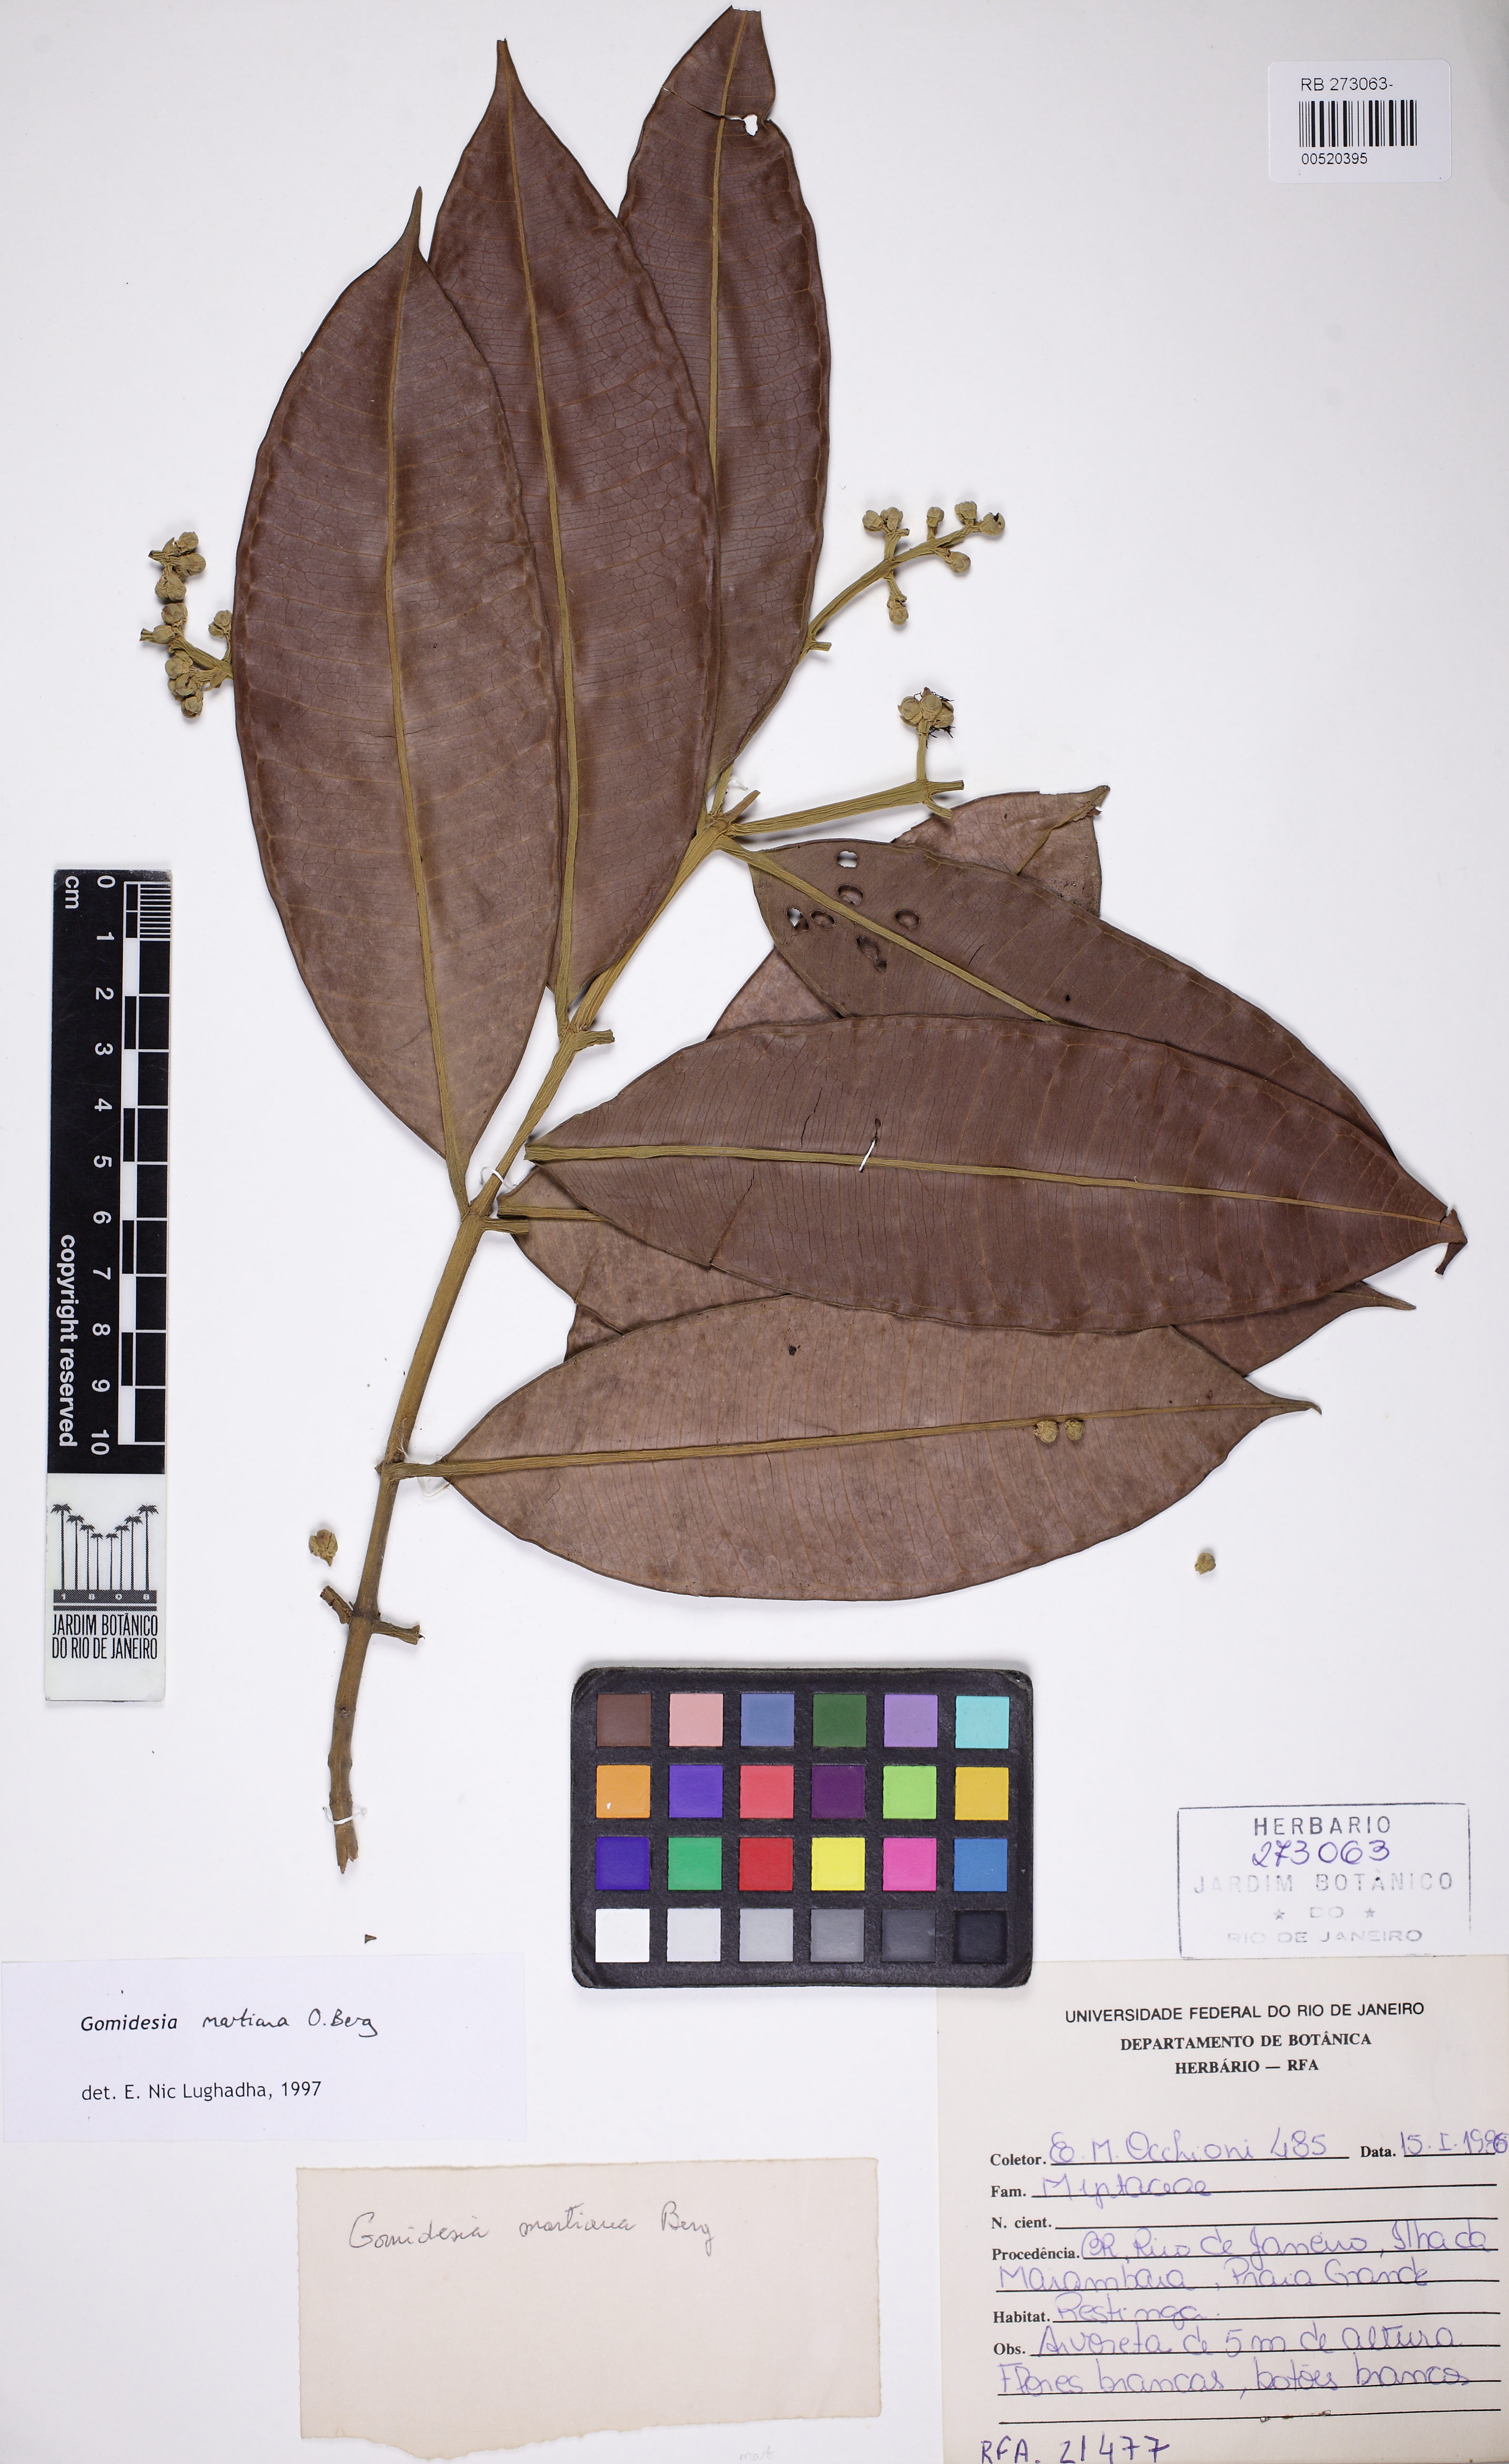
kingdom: Plantae
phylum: Tracheophyta
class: Magnoliopsida
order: Myrtales
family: Myrtaceae
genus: Myrcia
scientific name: Myrcia vittoriana
